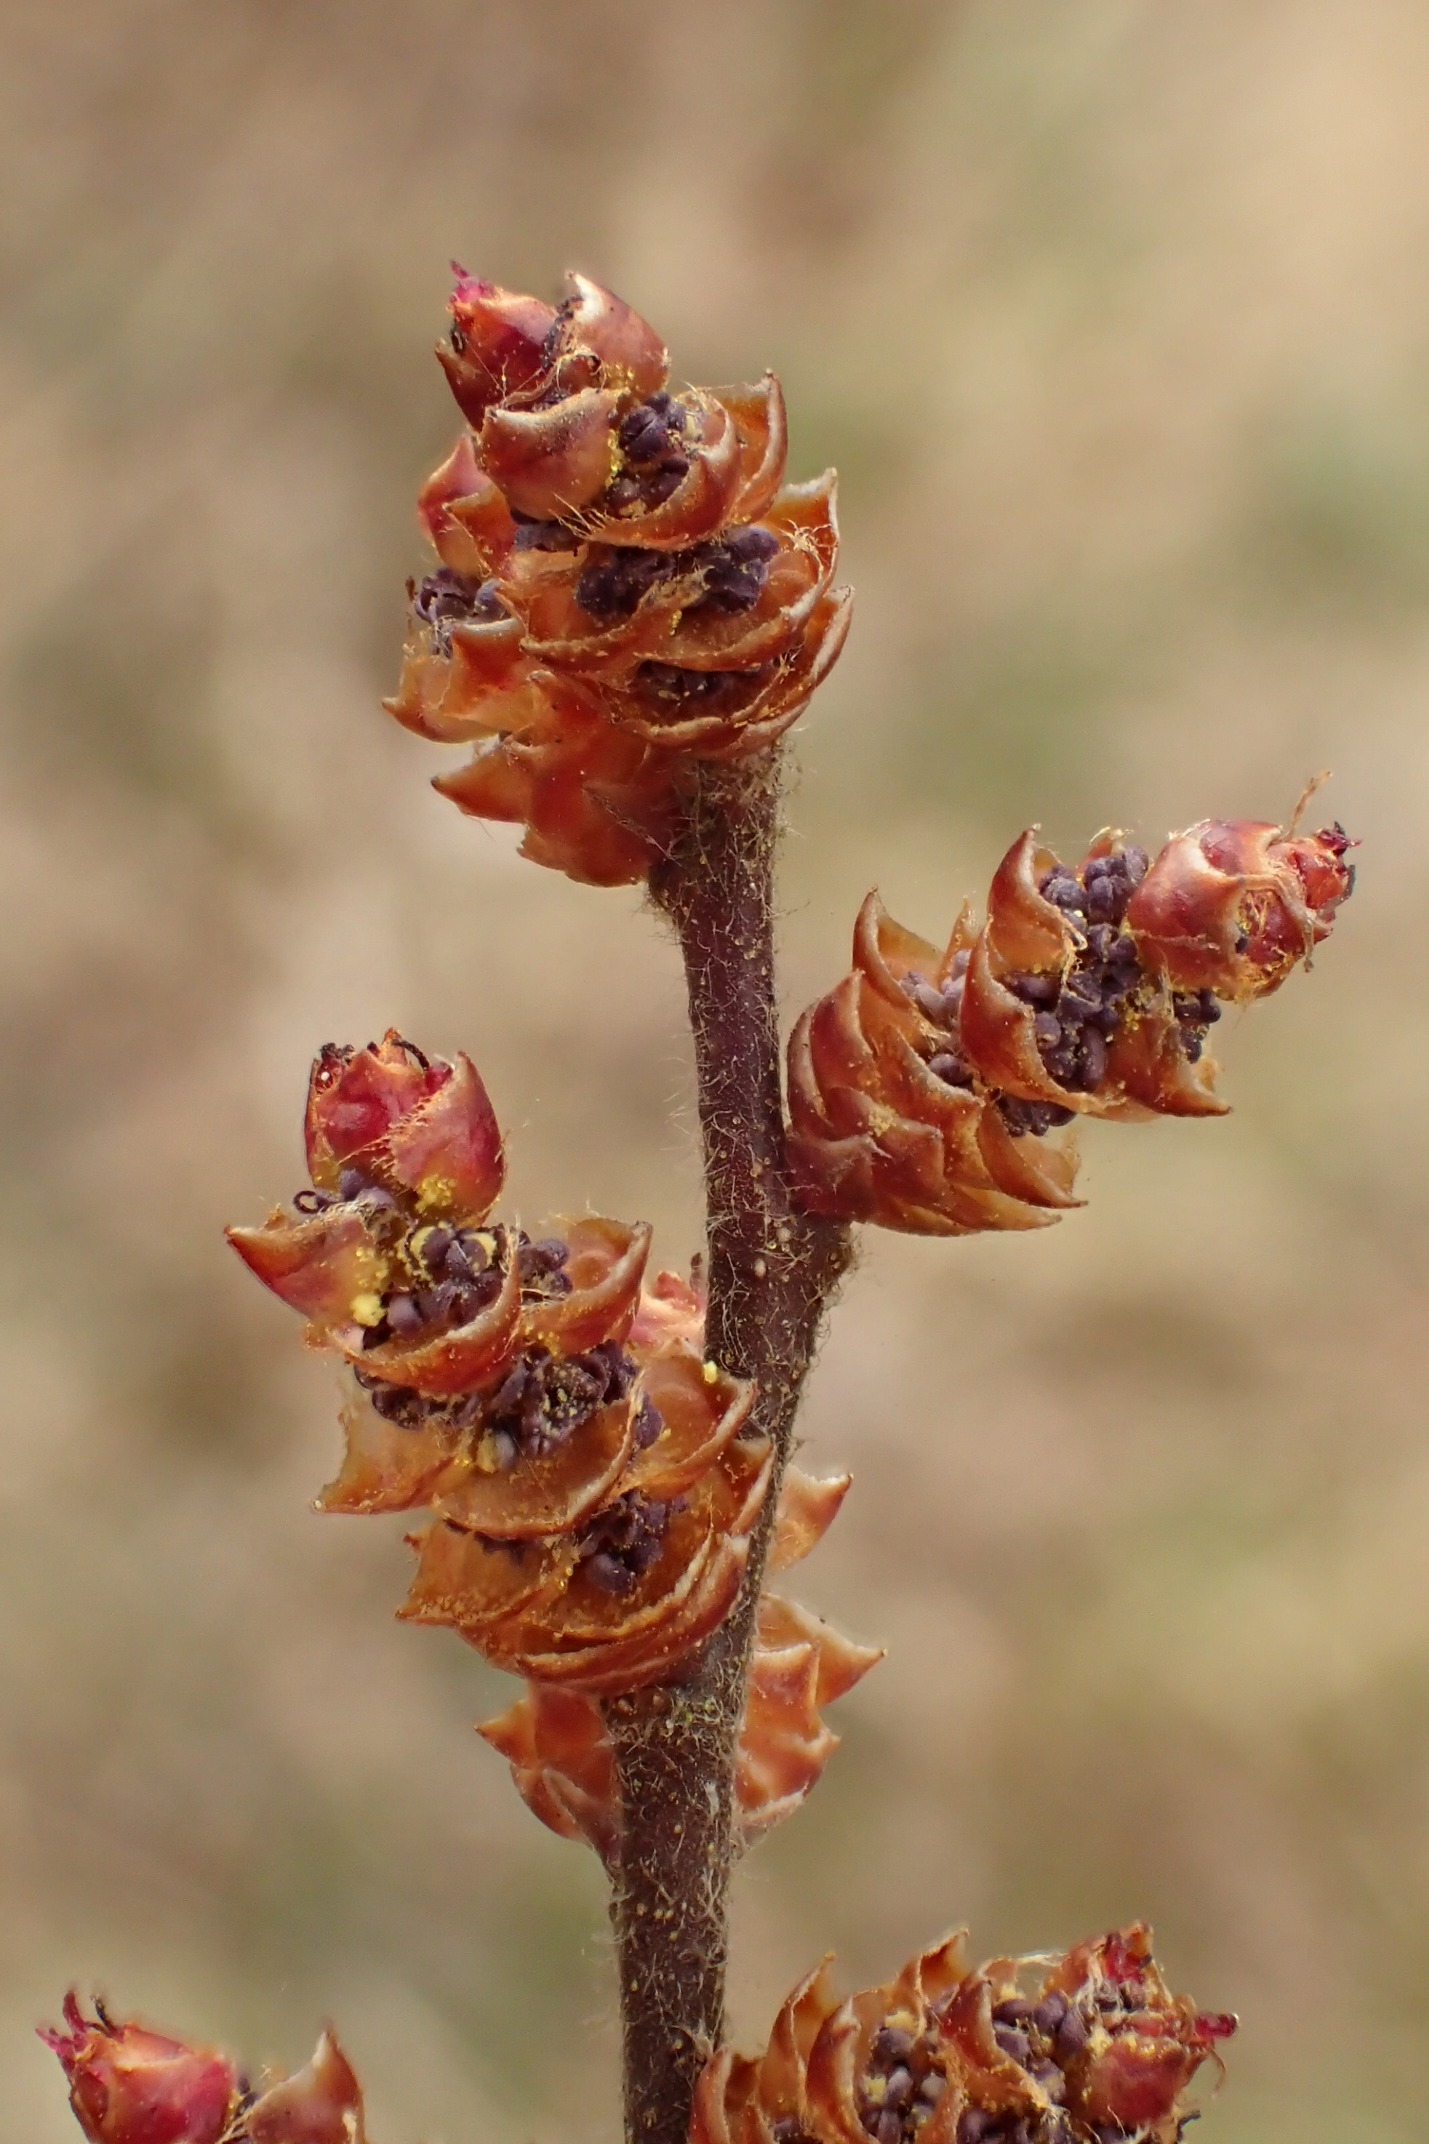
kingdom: Plantae
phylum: Tracheophyta
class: Magnoliopsida
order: Fagales
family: Myricaceae
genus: Myrica
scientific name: Myrica gale
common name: Pors
